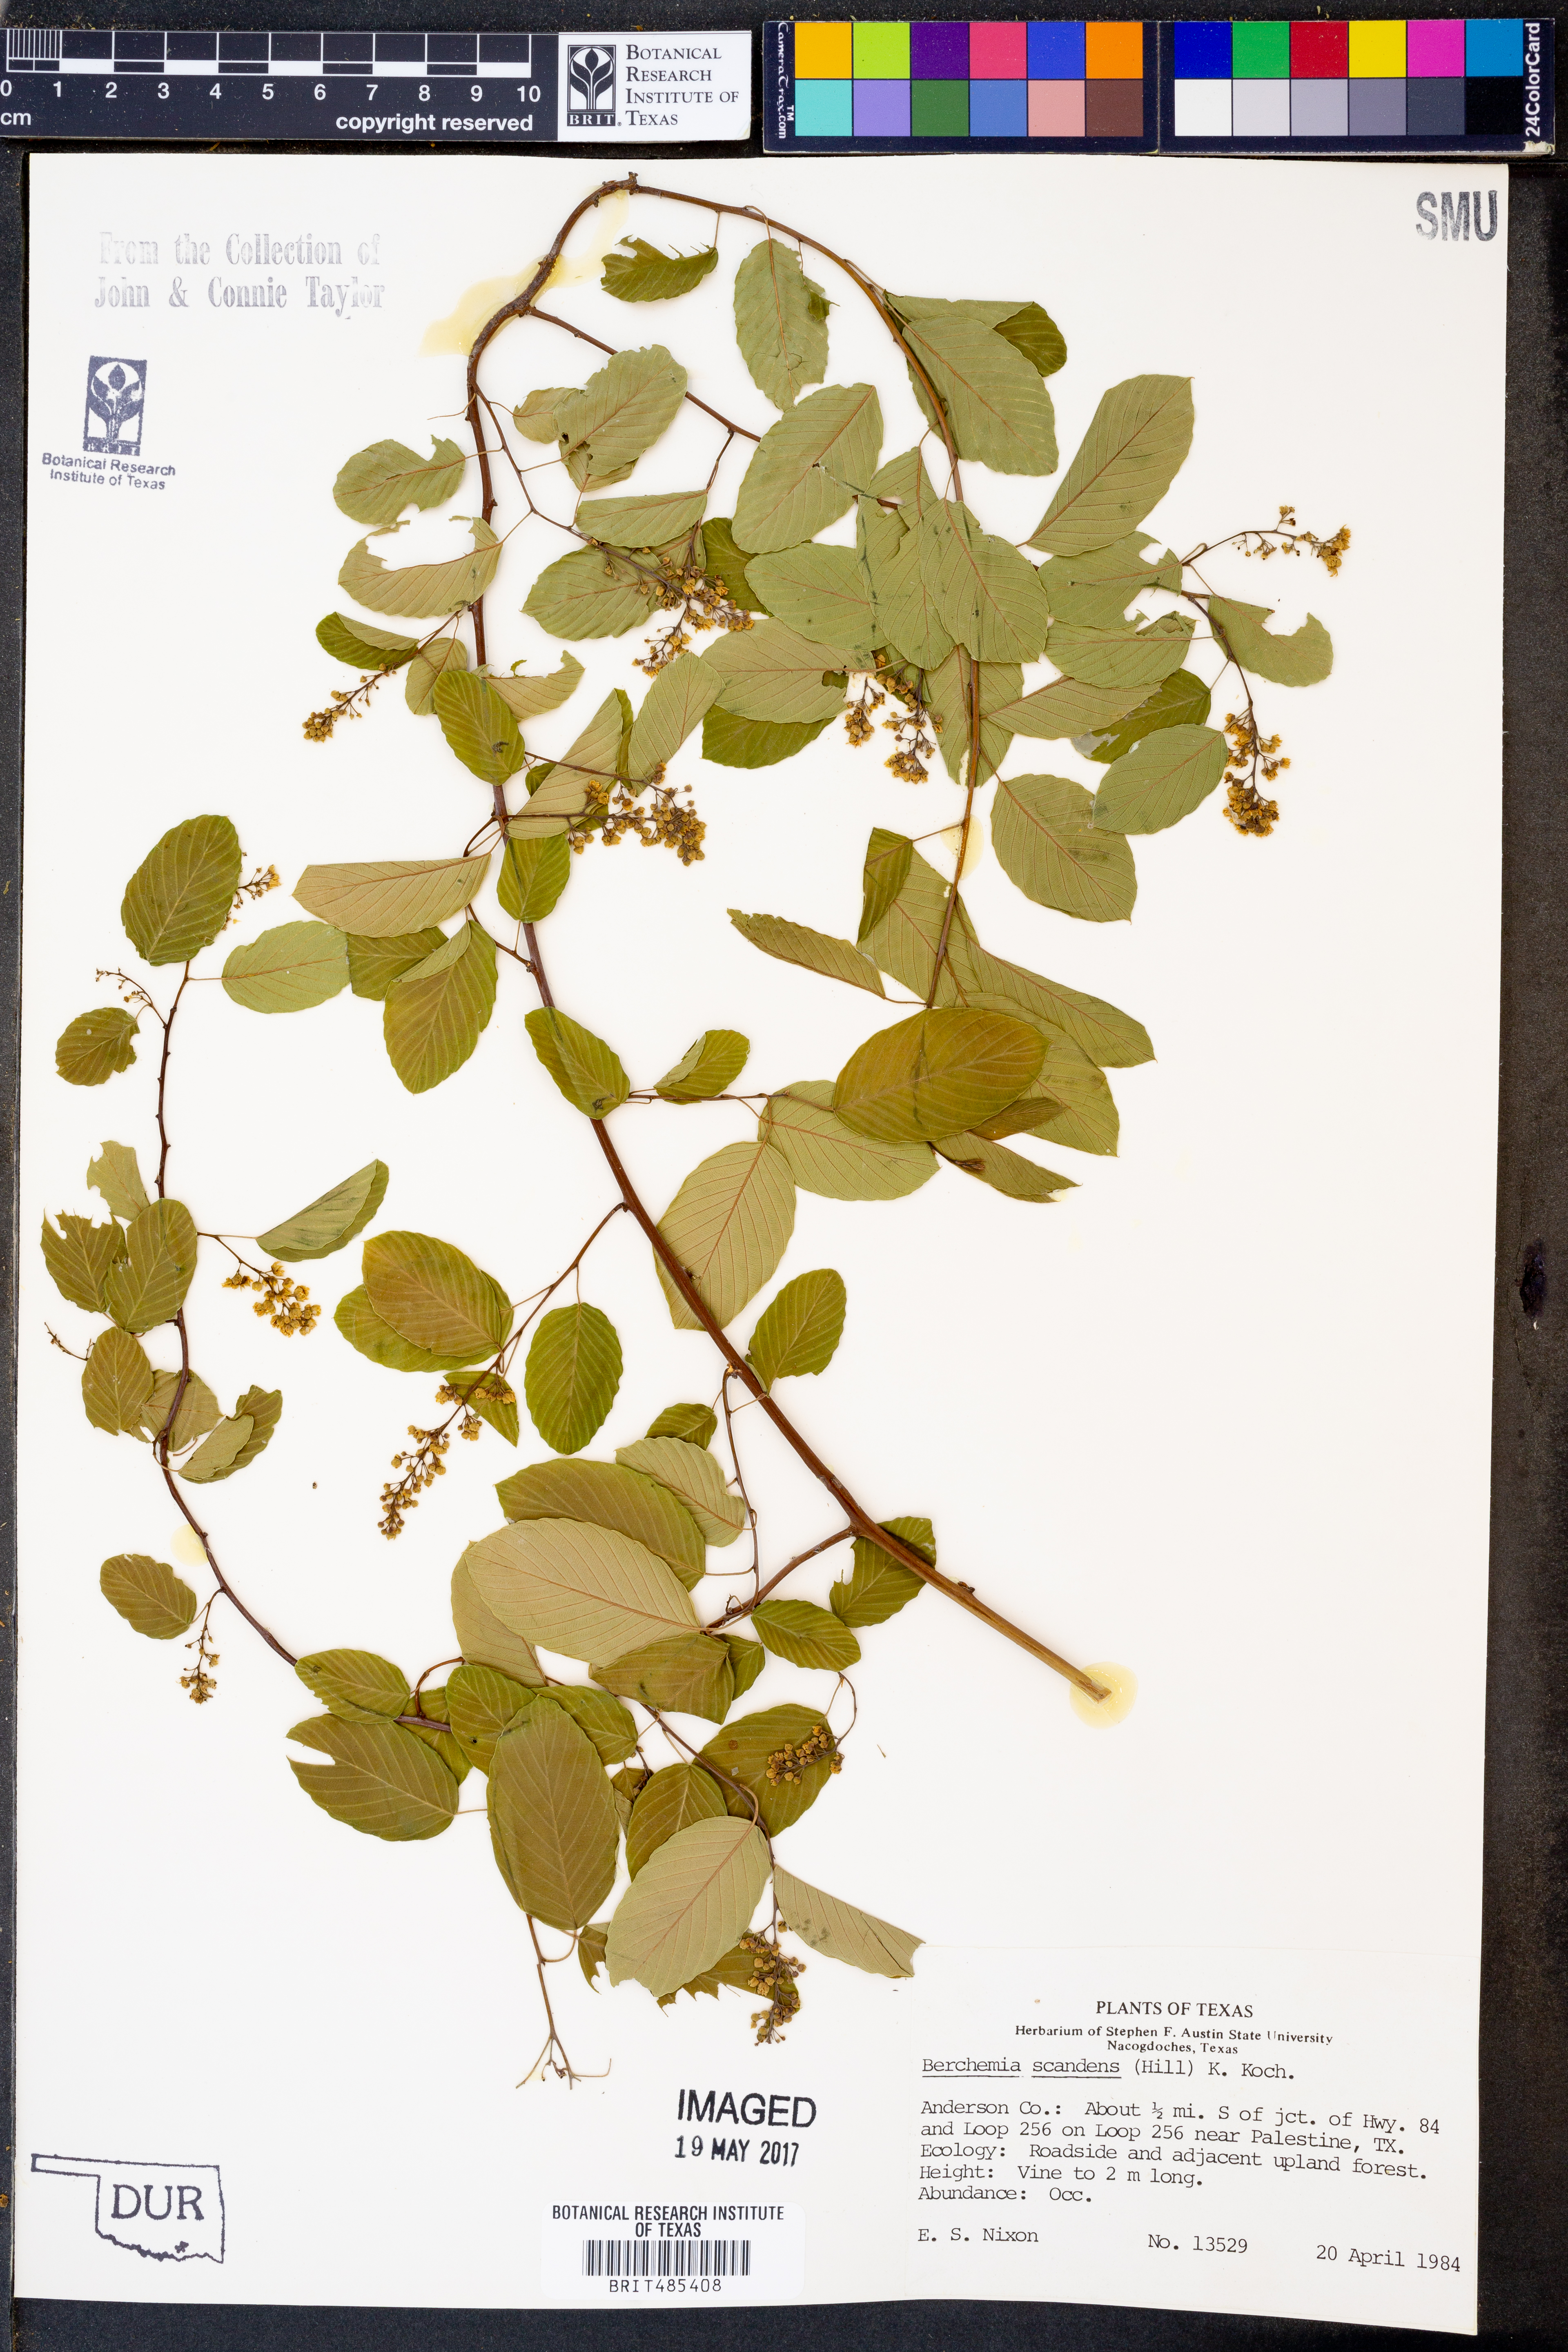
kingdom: Plantae
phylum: Tracheophyta
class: Magnoliopsida
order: Rosales
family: Rhamnaceae
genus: Berchemia
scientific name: Berchemia scandens
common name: Supplejack
